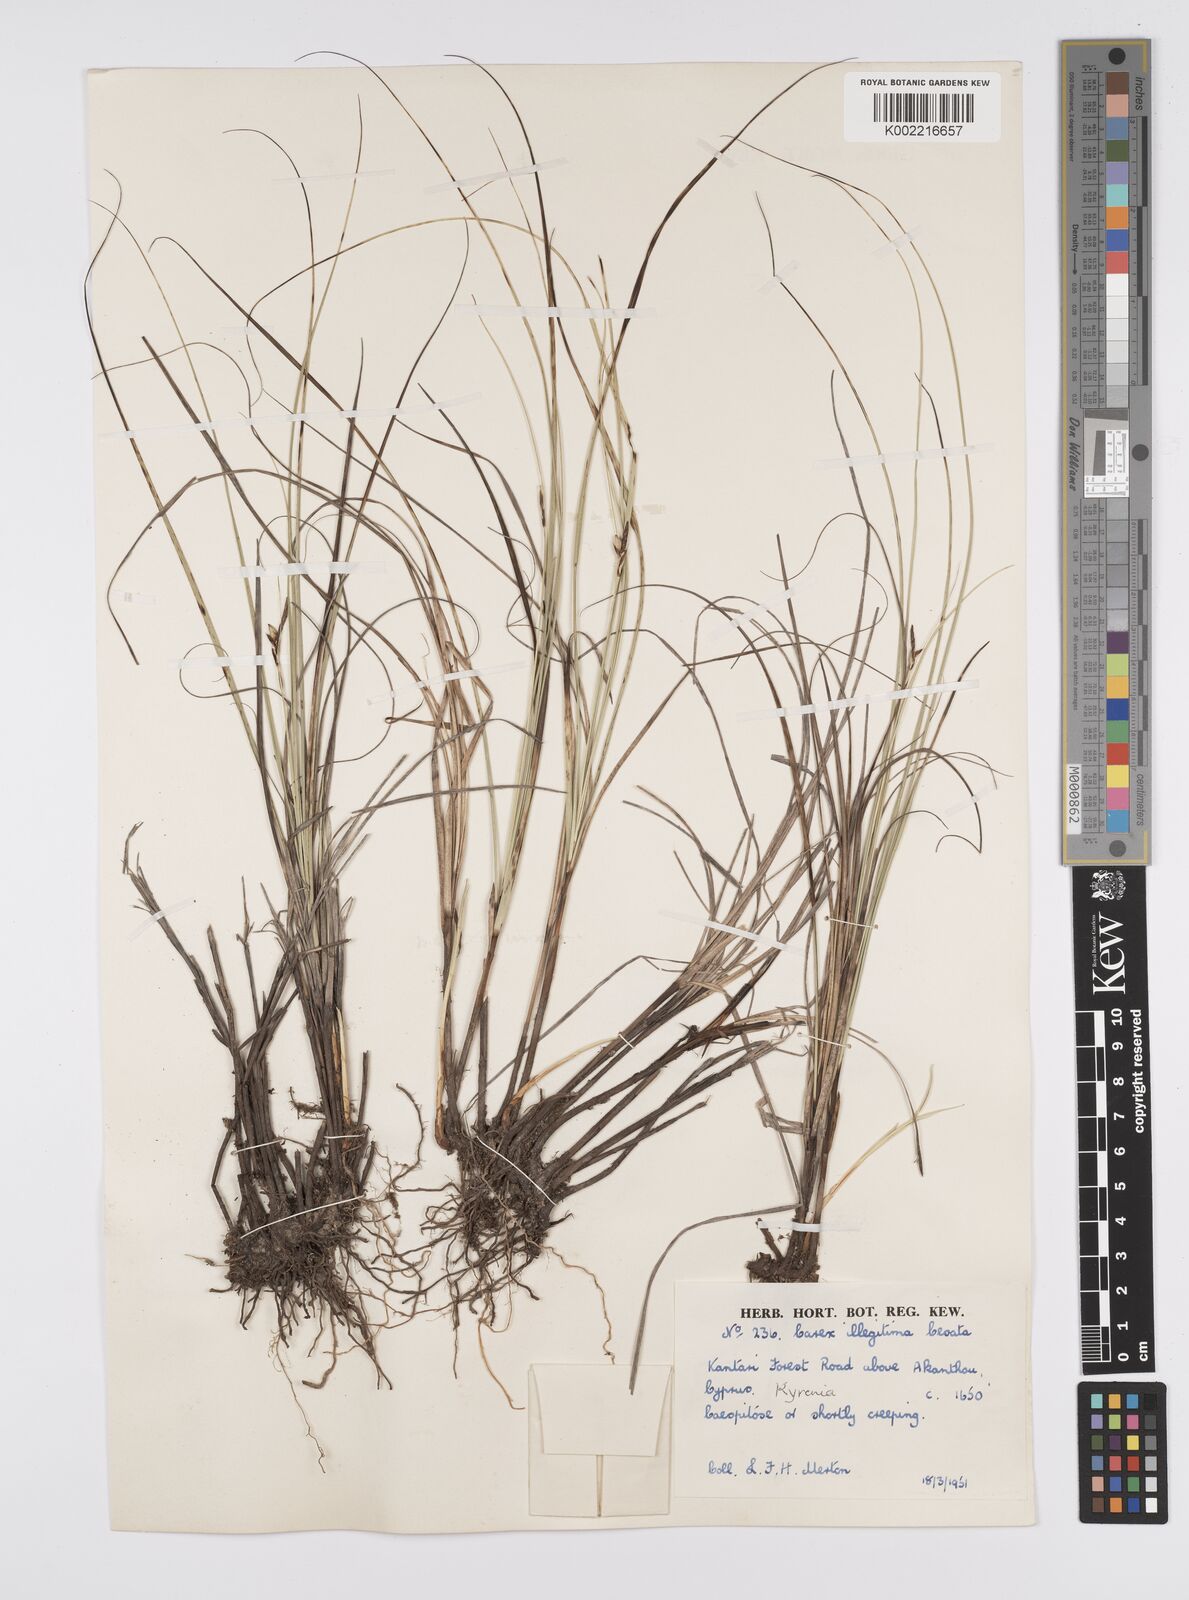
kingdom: Plantae
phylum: Tracheophyta
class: Liliopsida
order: Poales
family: Cyperaceae
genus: Carex
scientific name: Carex illegitima
